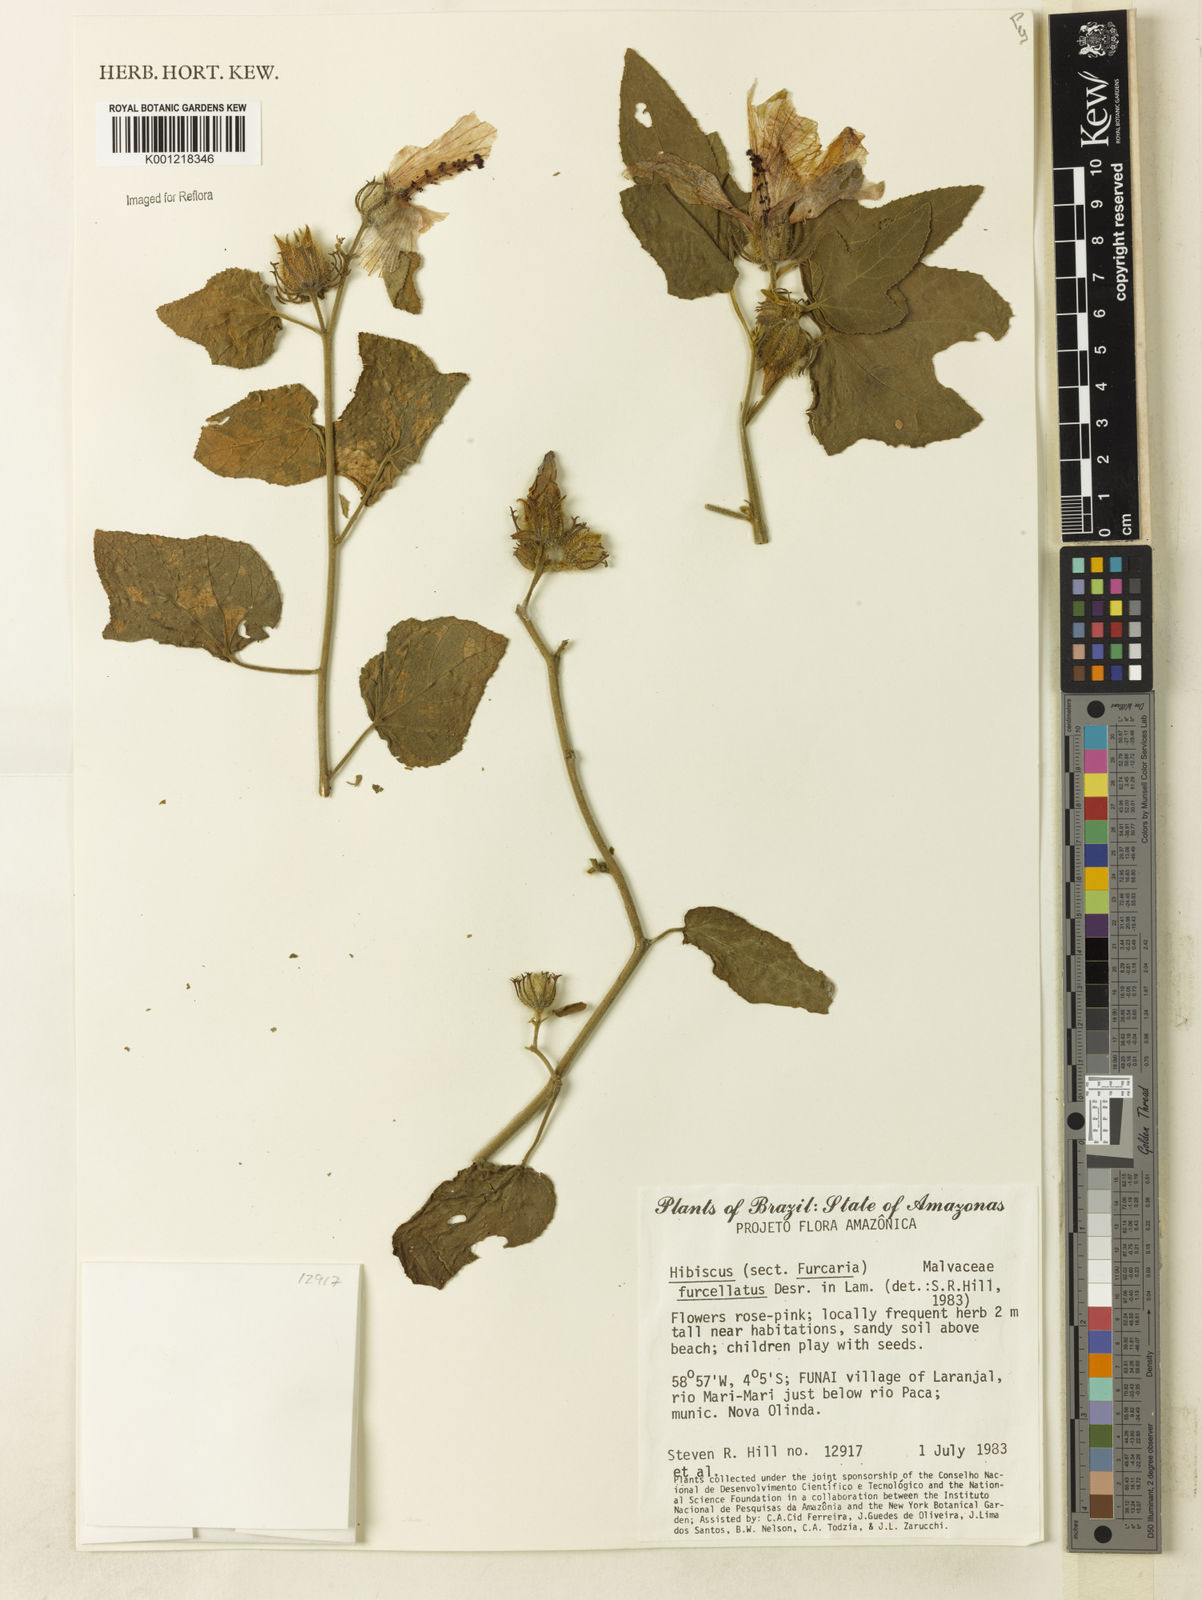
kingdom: Plantae
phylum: Tracheophyta
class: Magnoliopsida
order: Malvales
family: Malvaceae
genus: Hibiscus
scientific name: Hibiscus furcellatus
